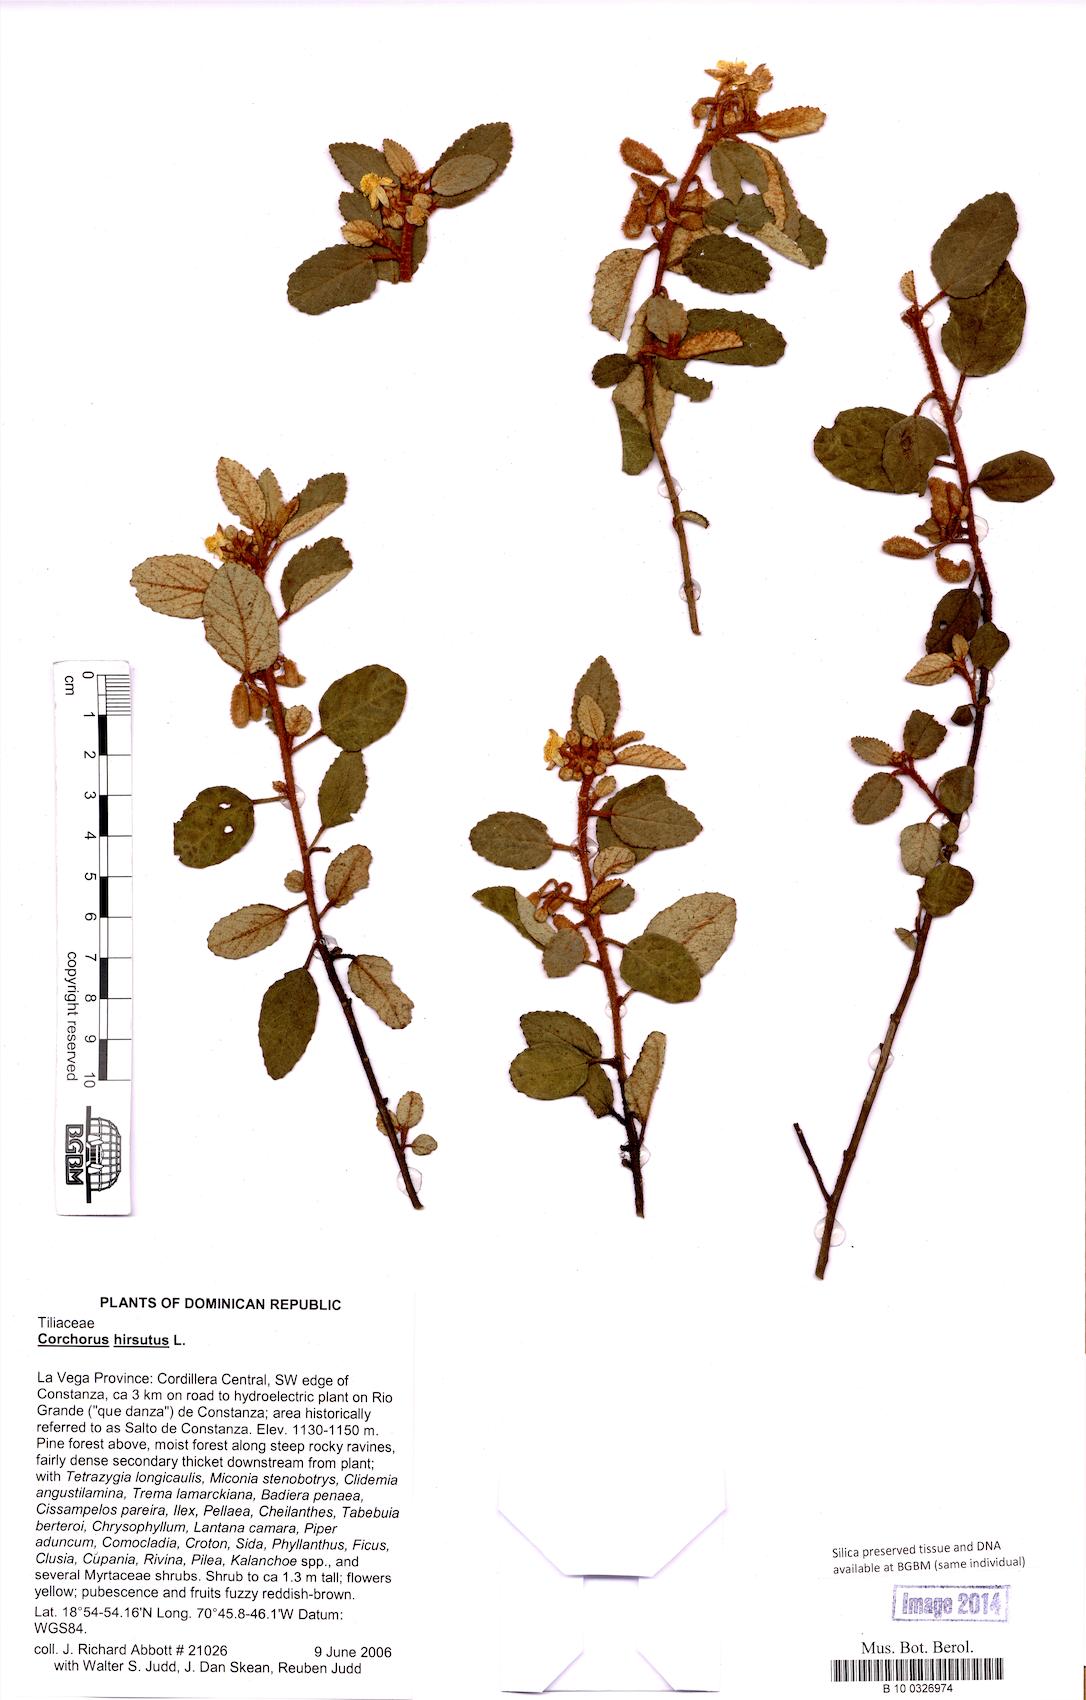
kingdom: Plantae
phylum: Tracheophyta
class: Magnoliopsida
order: Malvales
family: Malvaceae
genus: Corchorus
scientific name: Corchorus hirsutus
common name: Jackswitch
